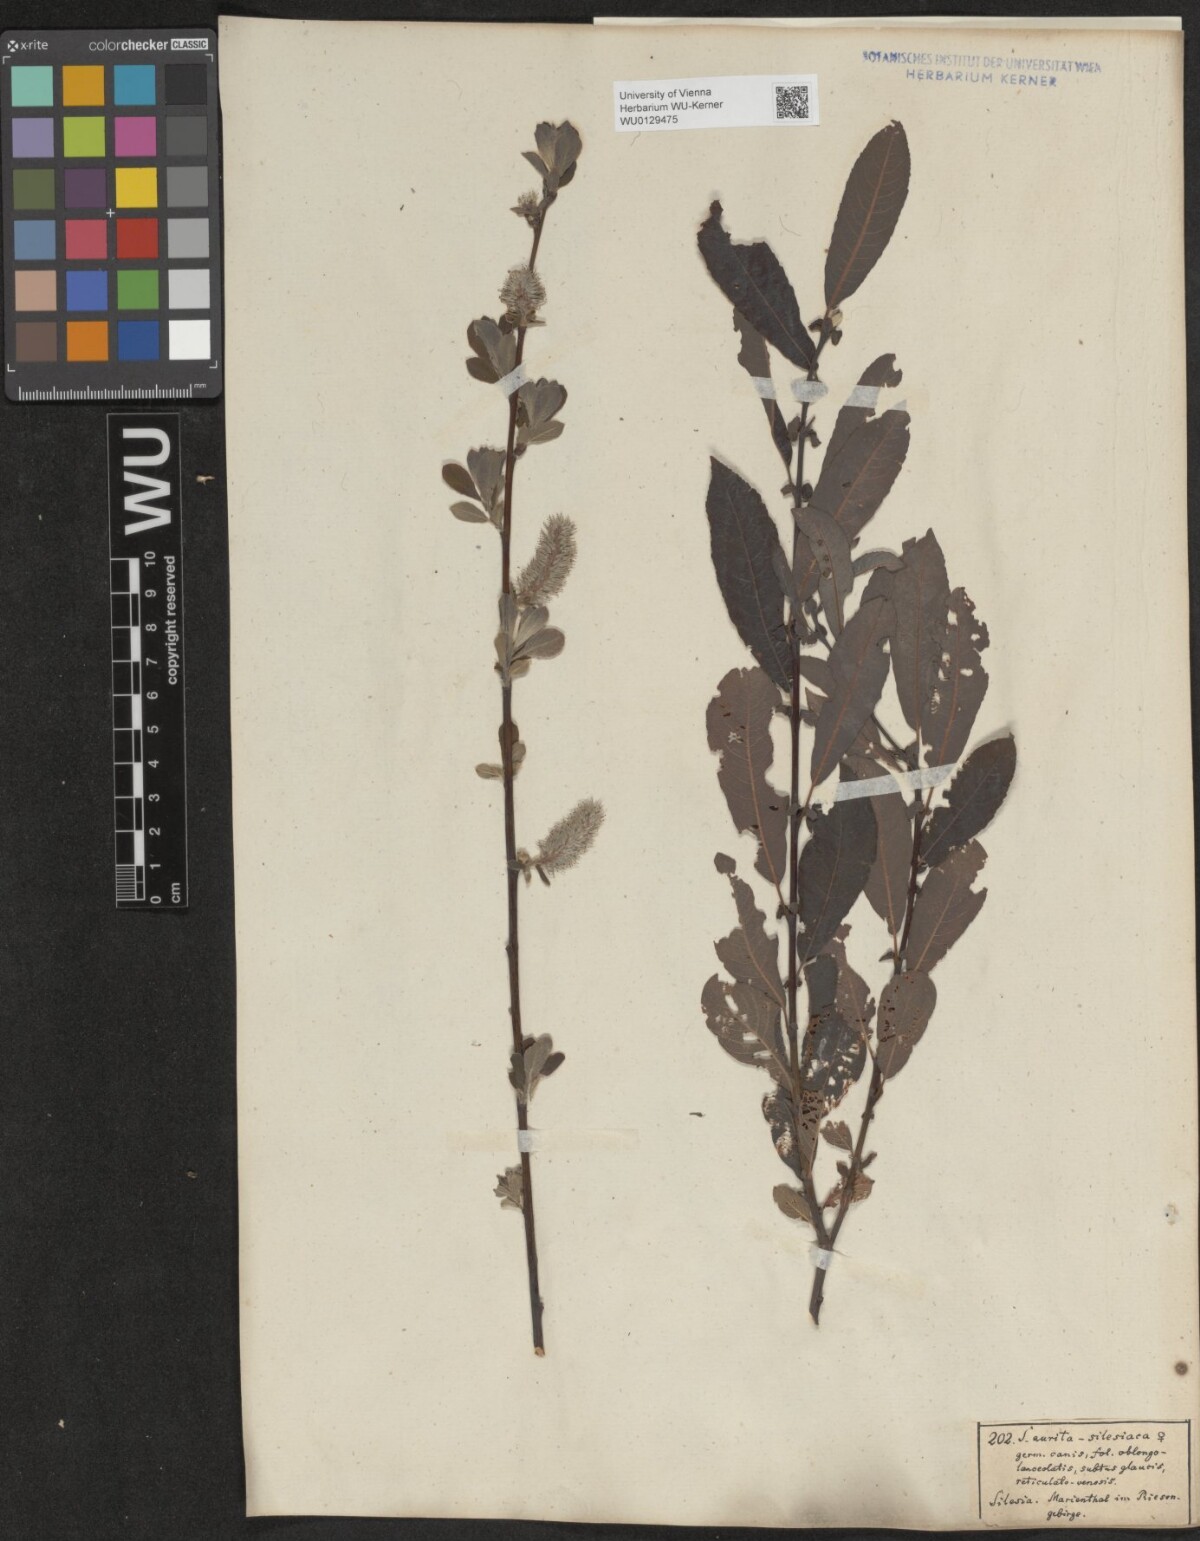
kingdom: Plantae
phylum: Tracheophyta
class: Magnoliopsida
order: Malpighiales
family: Salicaceae
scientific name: Salicaceae
